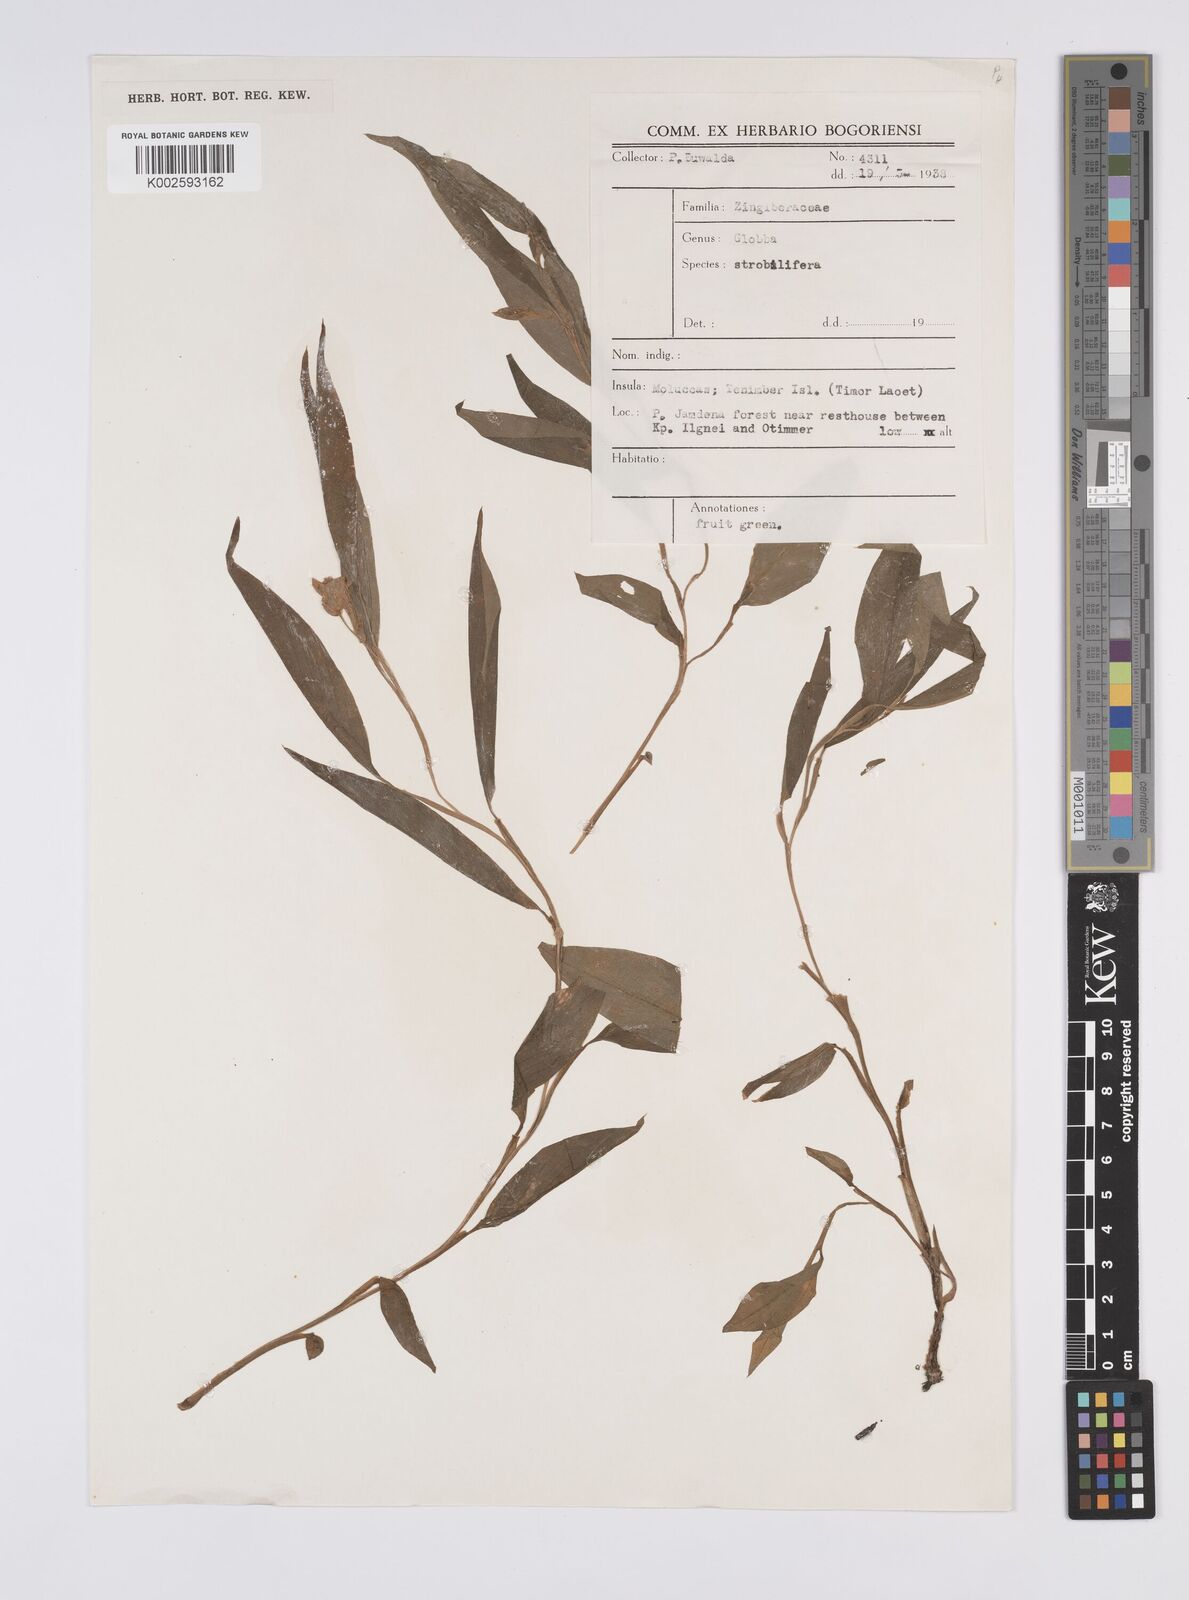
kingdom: Plantae
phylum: Tracheophyta
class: Liliopsida
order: Zingiberales
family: Zingiberaceae
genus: Globba
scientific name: Globba
